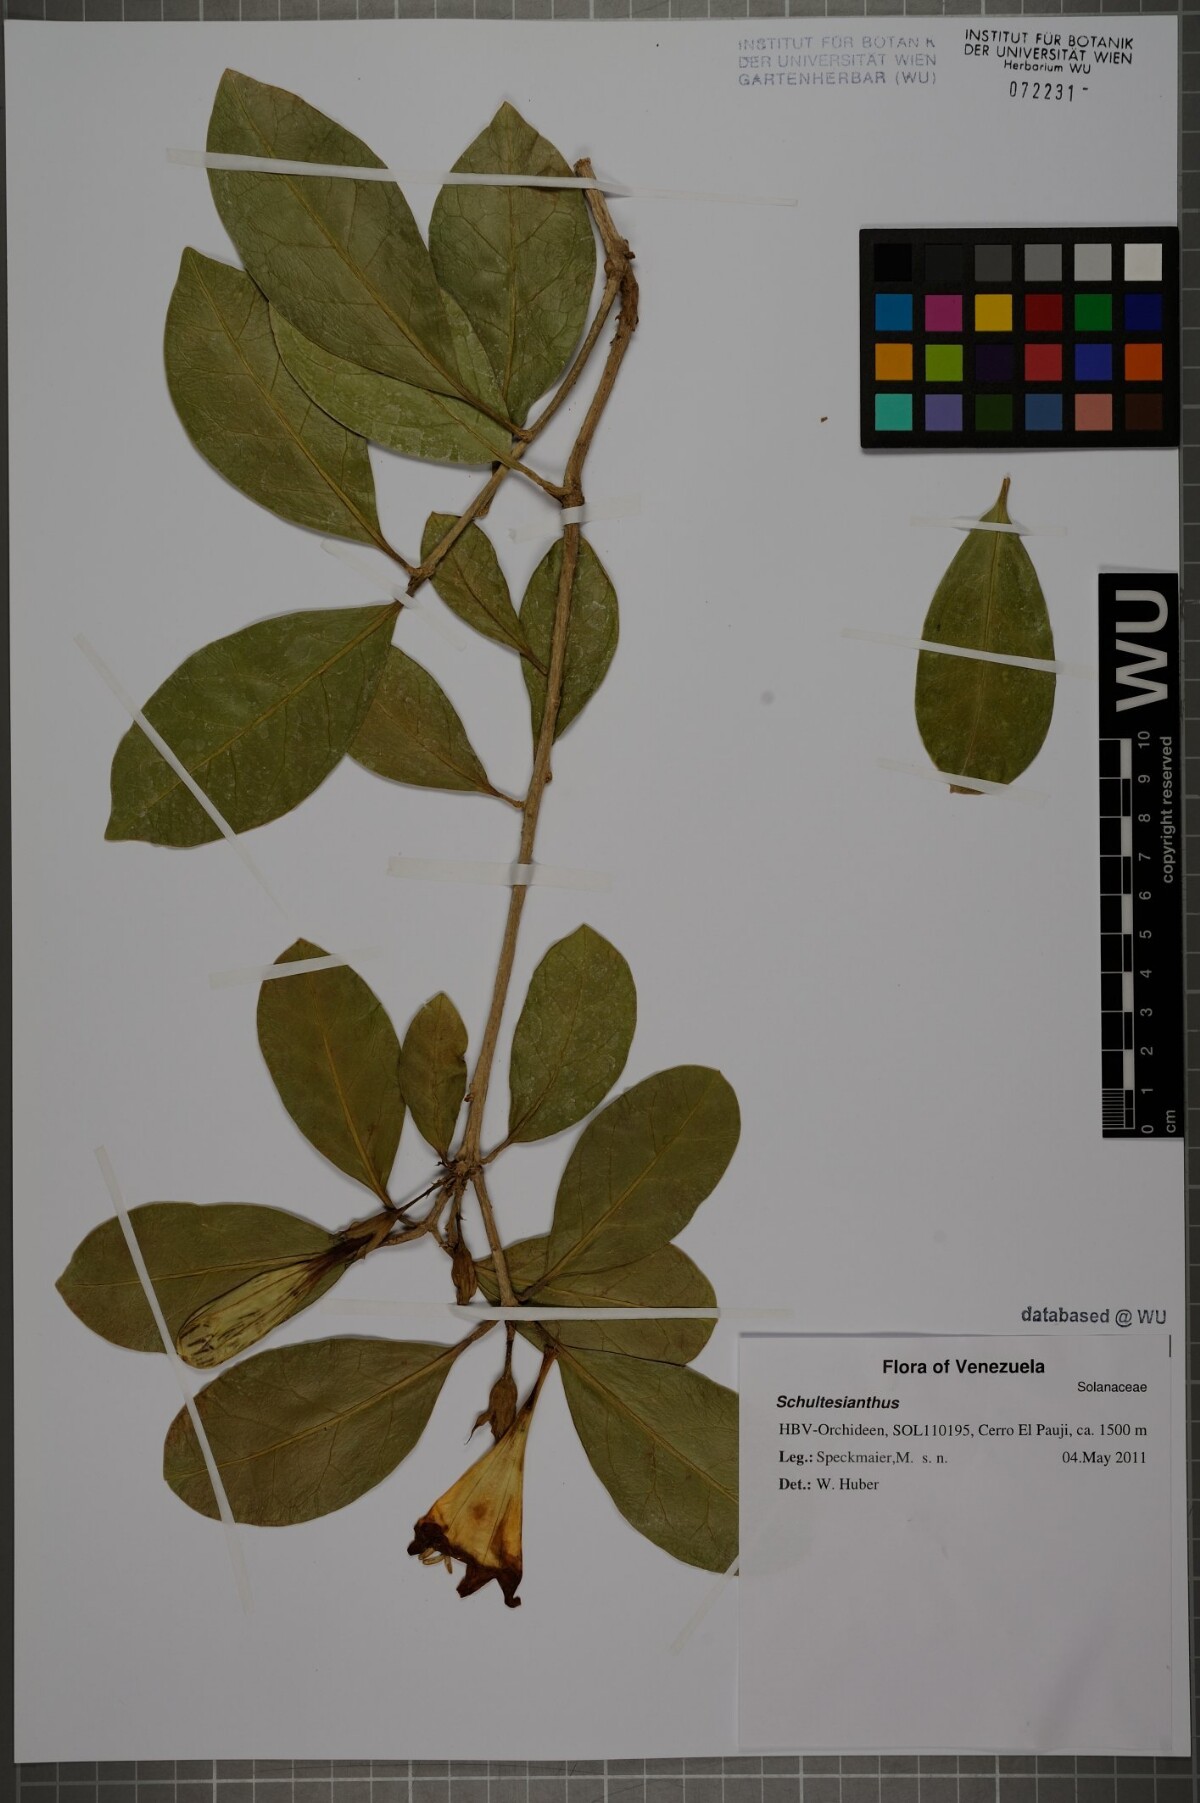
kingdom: Plantae
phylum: Tracheophyta
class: Magnoliopsida
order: Solanales
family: Solanaceae
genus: Schultesianthus
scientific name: Schultesianthus
